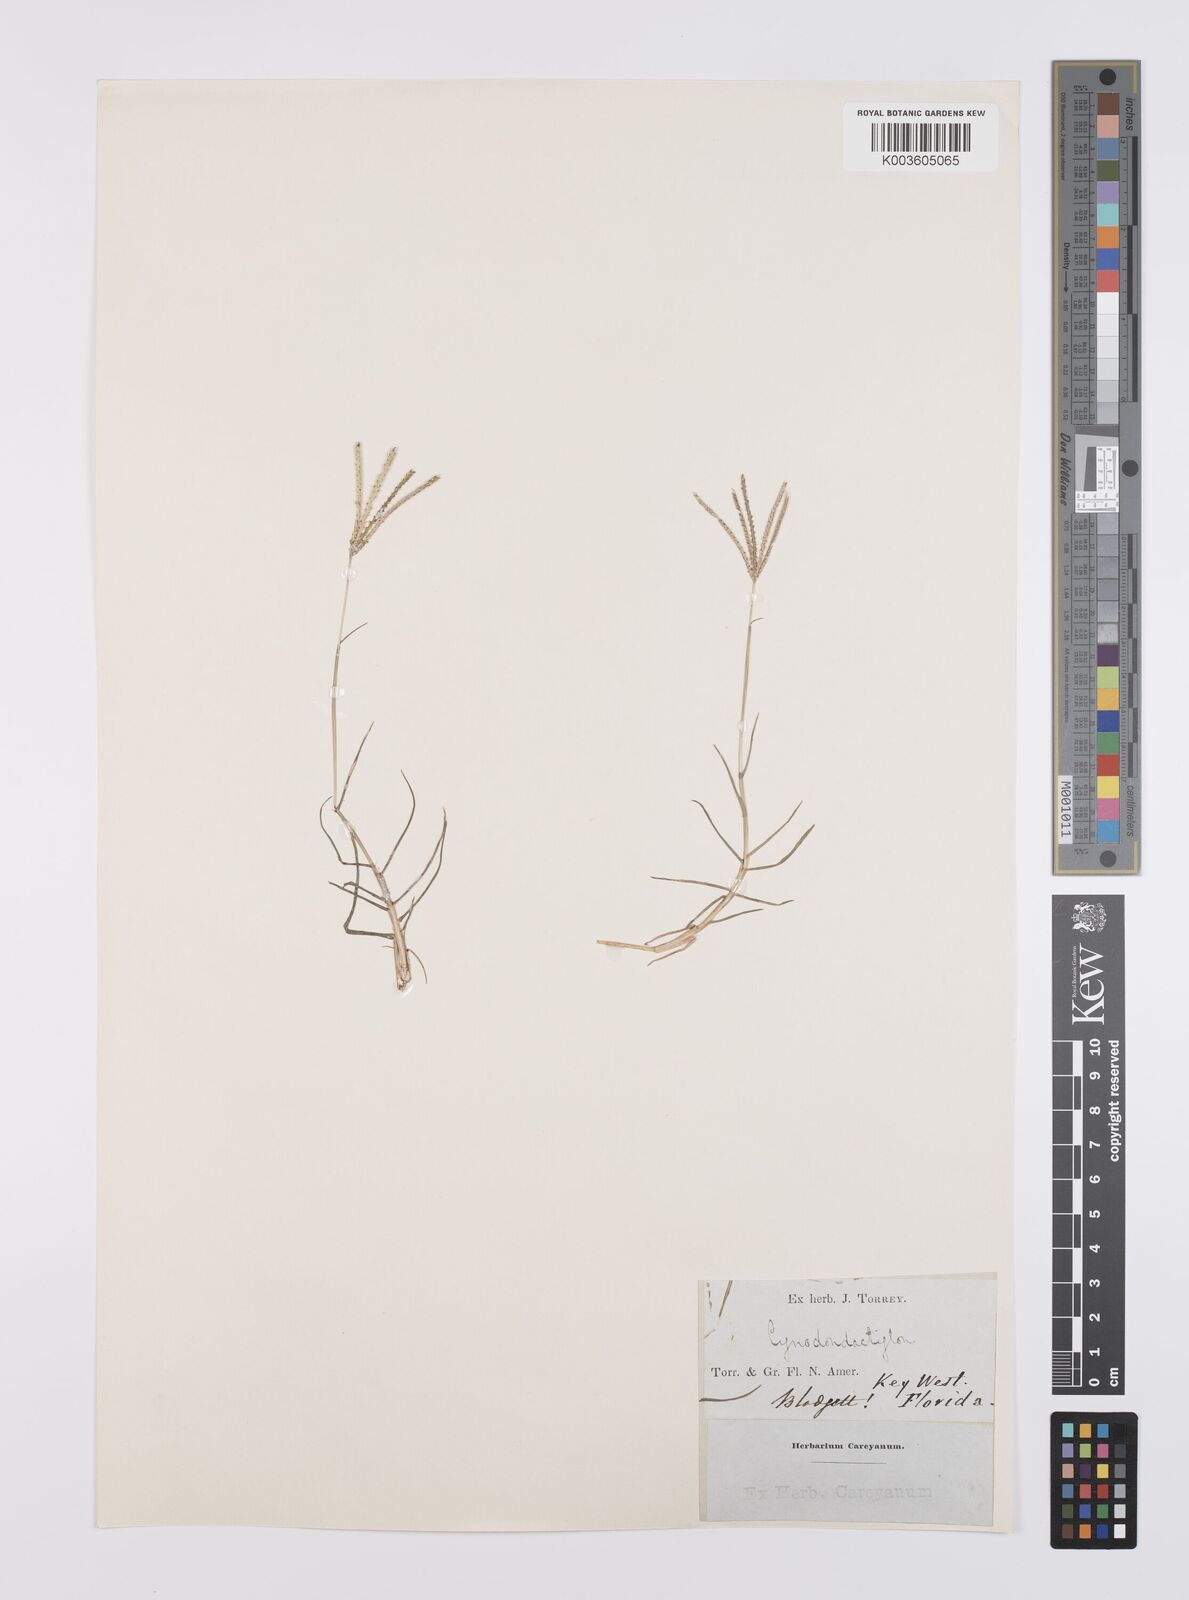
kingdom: Plantae
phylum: Tracheophyta
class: Liliopsida
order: Poales
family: Poaceae
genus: Cynodon
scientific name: Cynodon dactylon
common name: Bermuda grass
